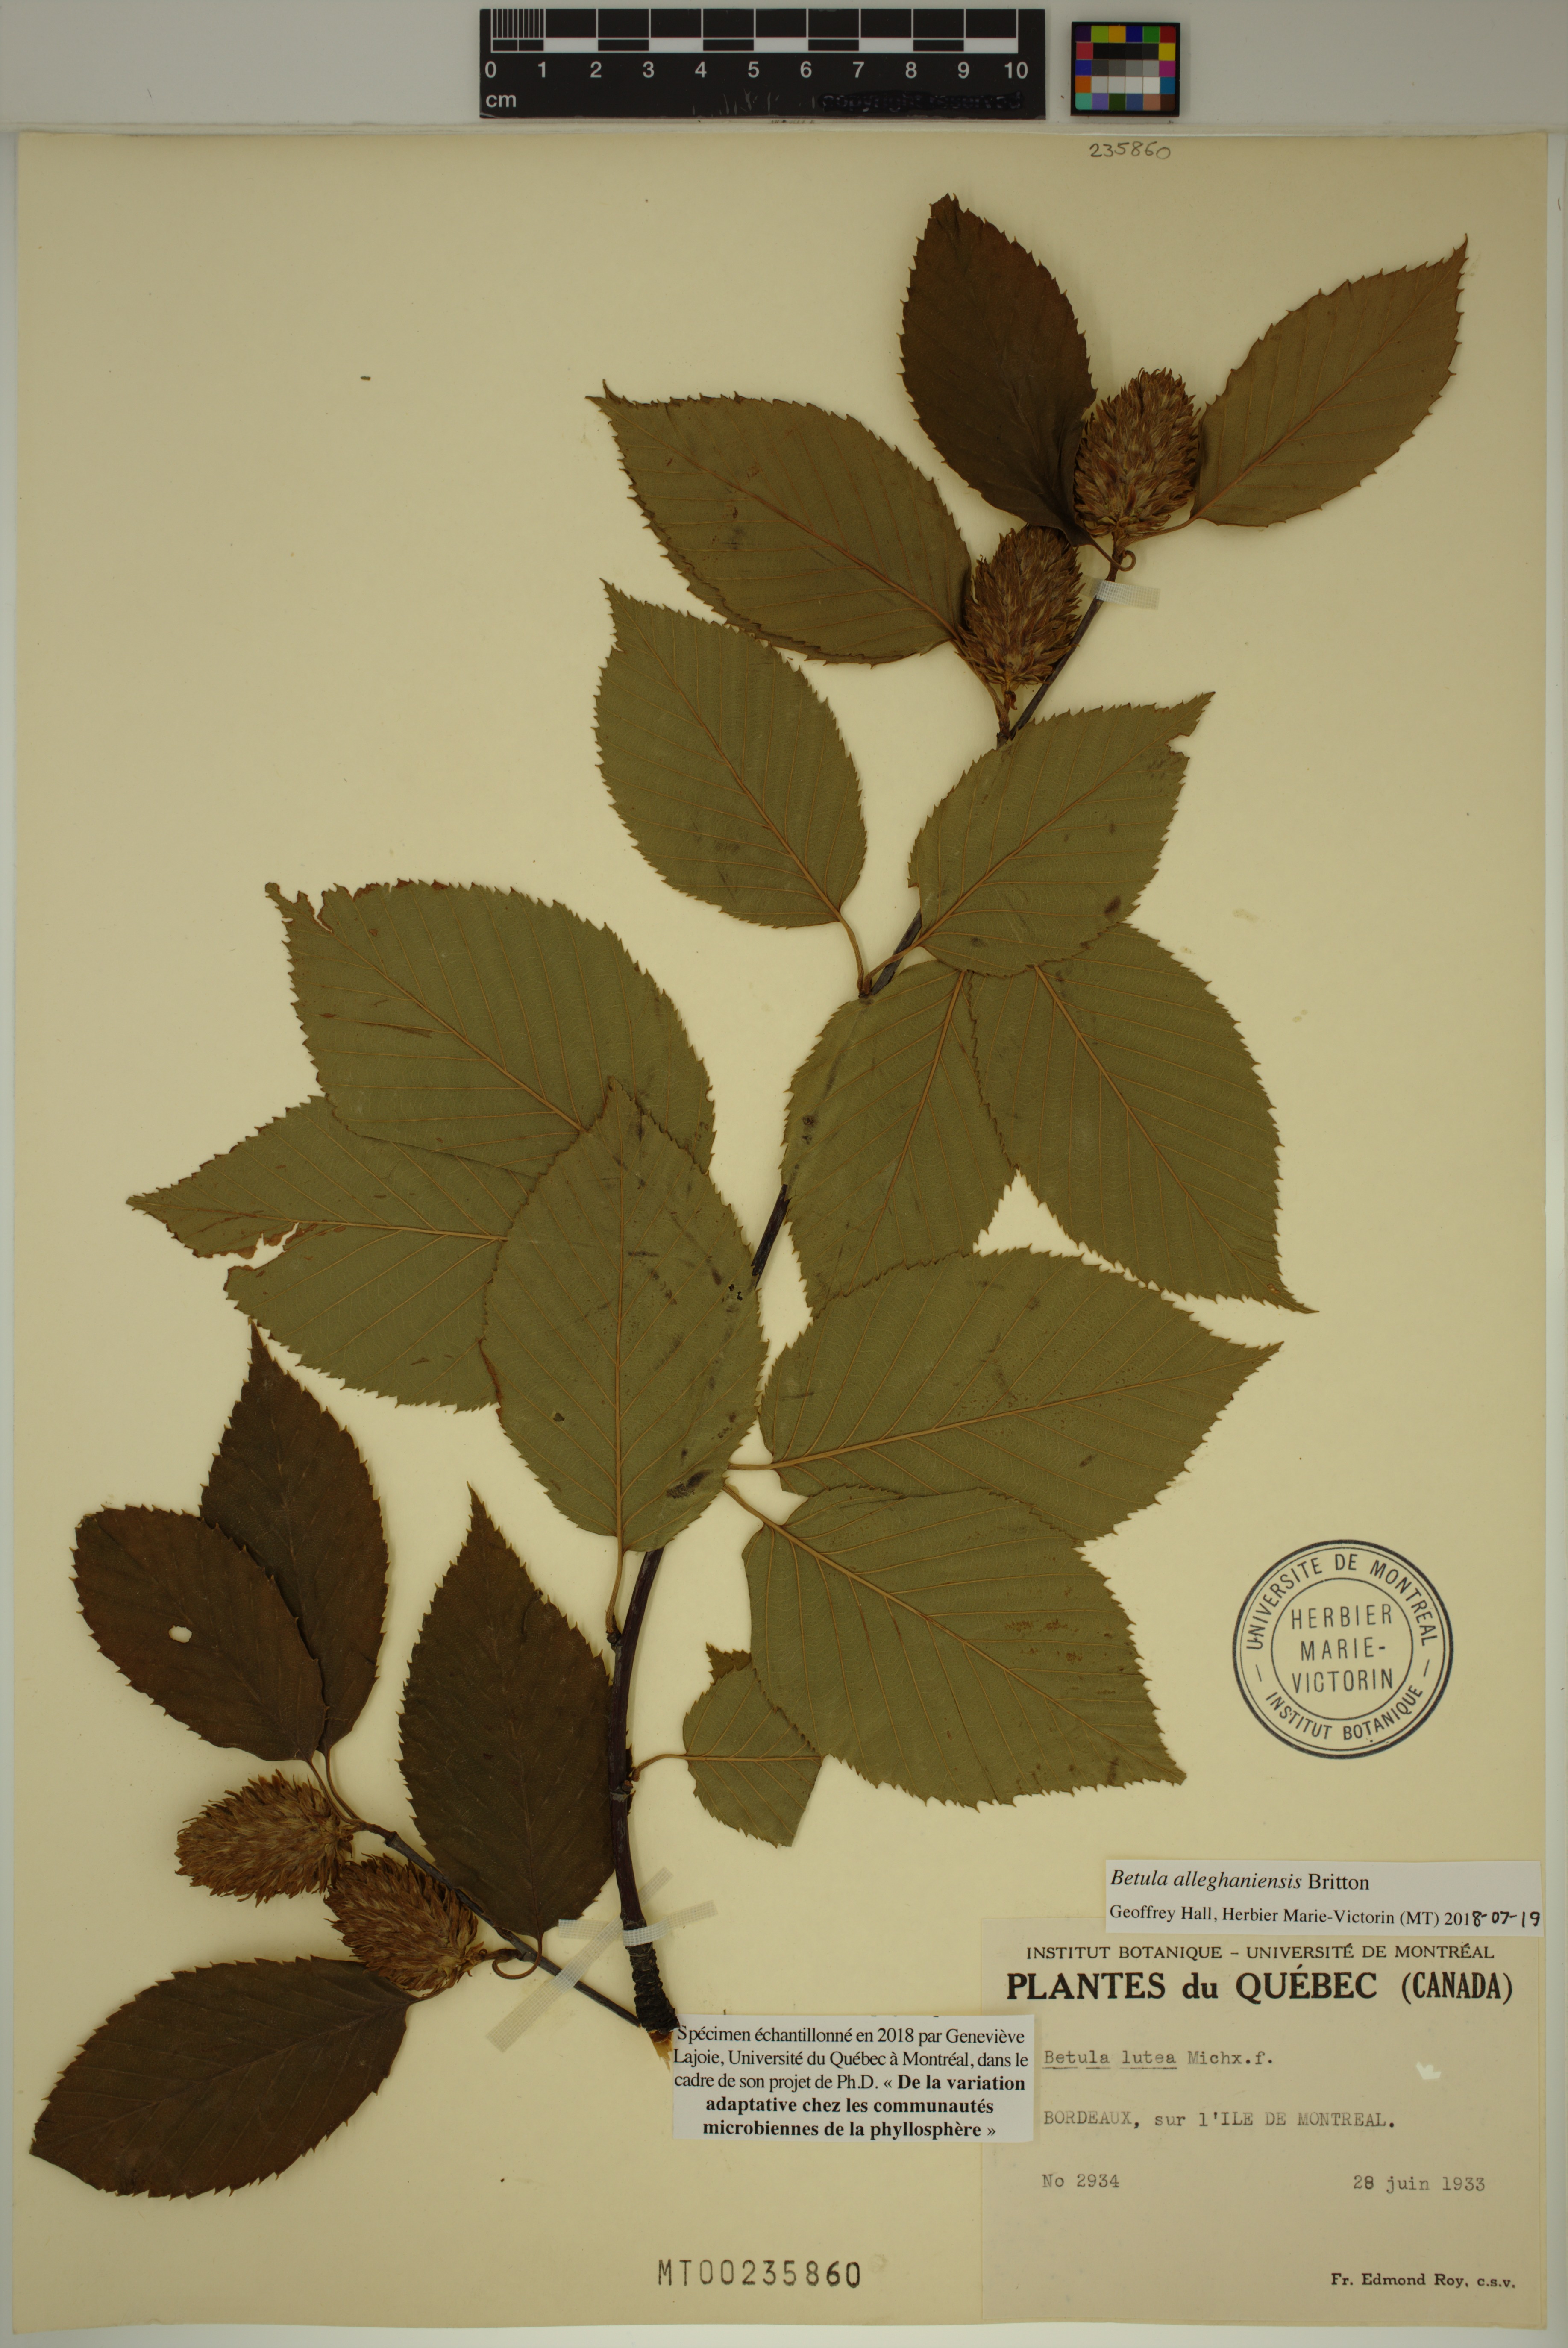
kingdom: Plantae
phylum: Tracheophyta
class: Magnoliopsida
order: Fagales
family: Betulaceae
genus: Betula
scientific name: Betula alleghaniensis
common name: Yellow birch
